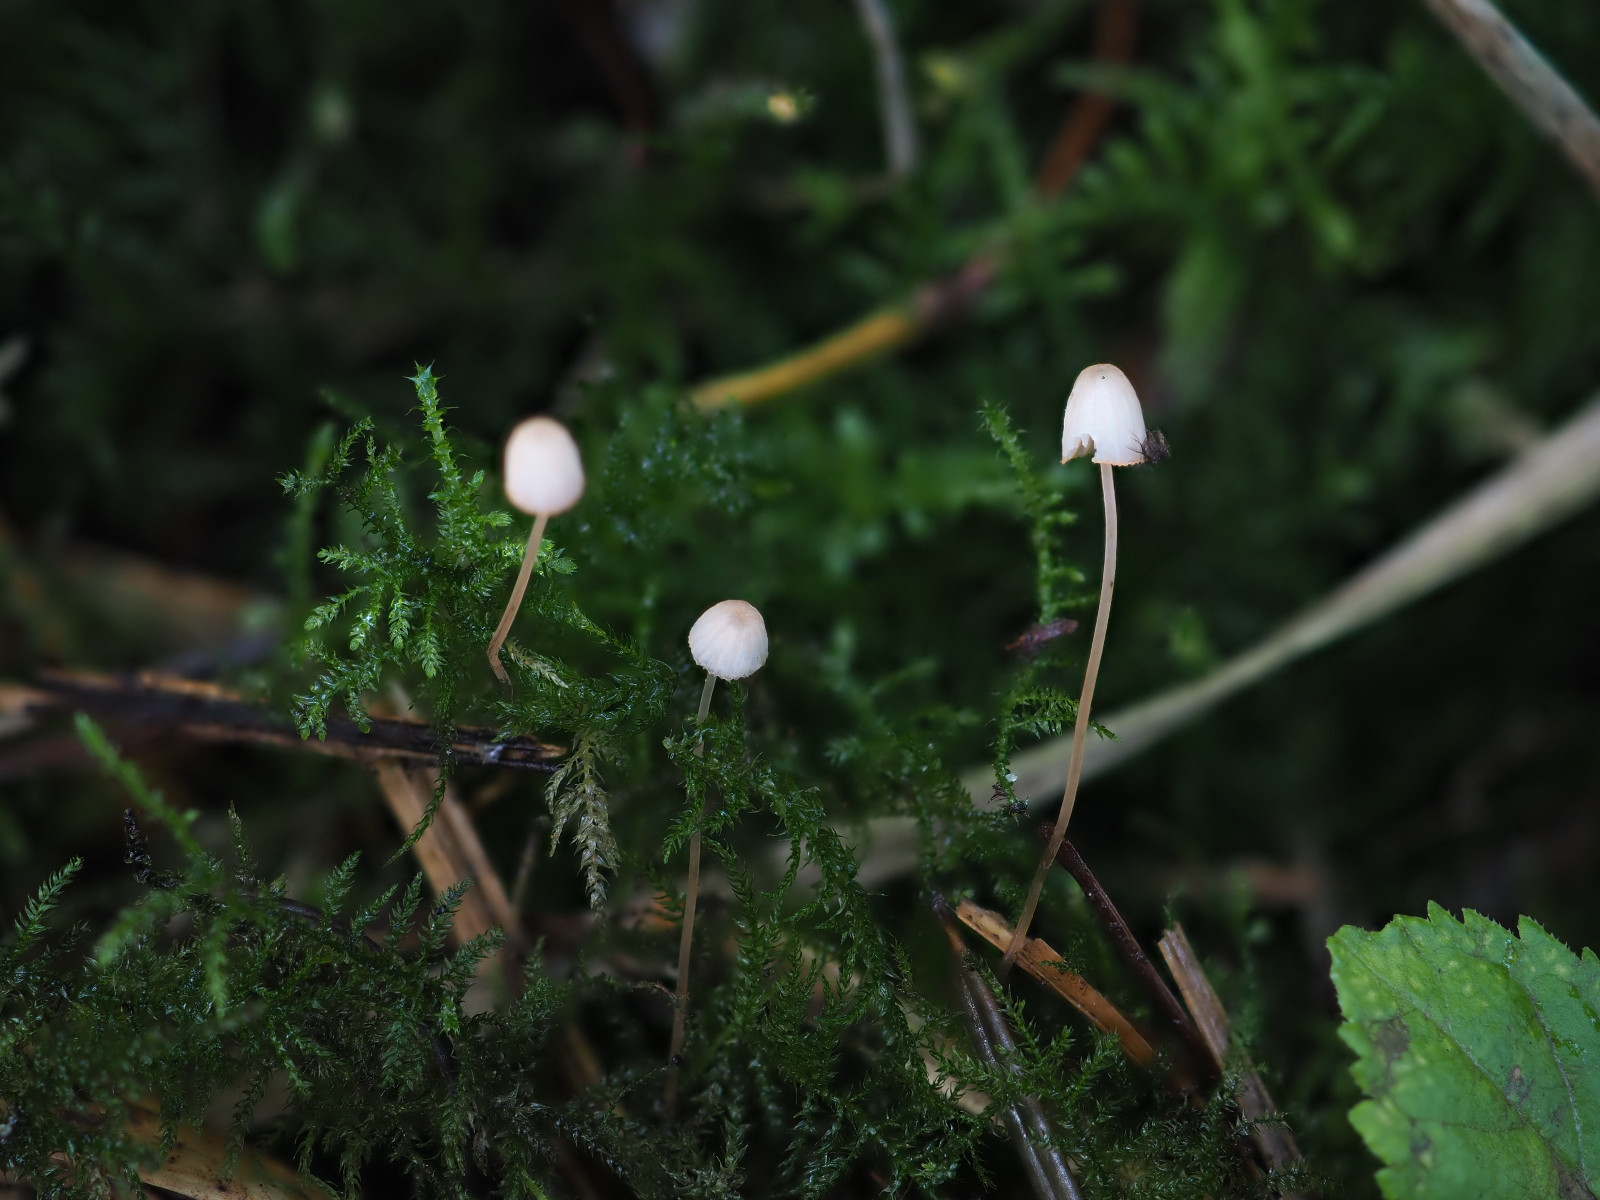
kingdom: Fungi
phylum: Basidiomycota
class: Agaricomycetes
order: Agaricales
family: Mycenaceae
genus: Mycena
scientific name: Mycena pterigena
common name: bregne-huesvamp
